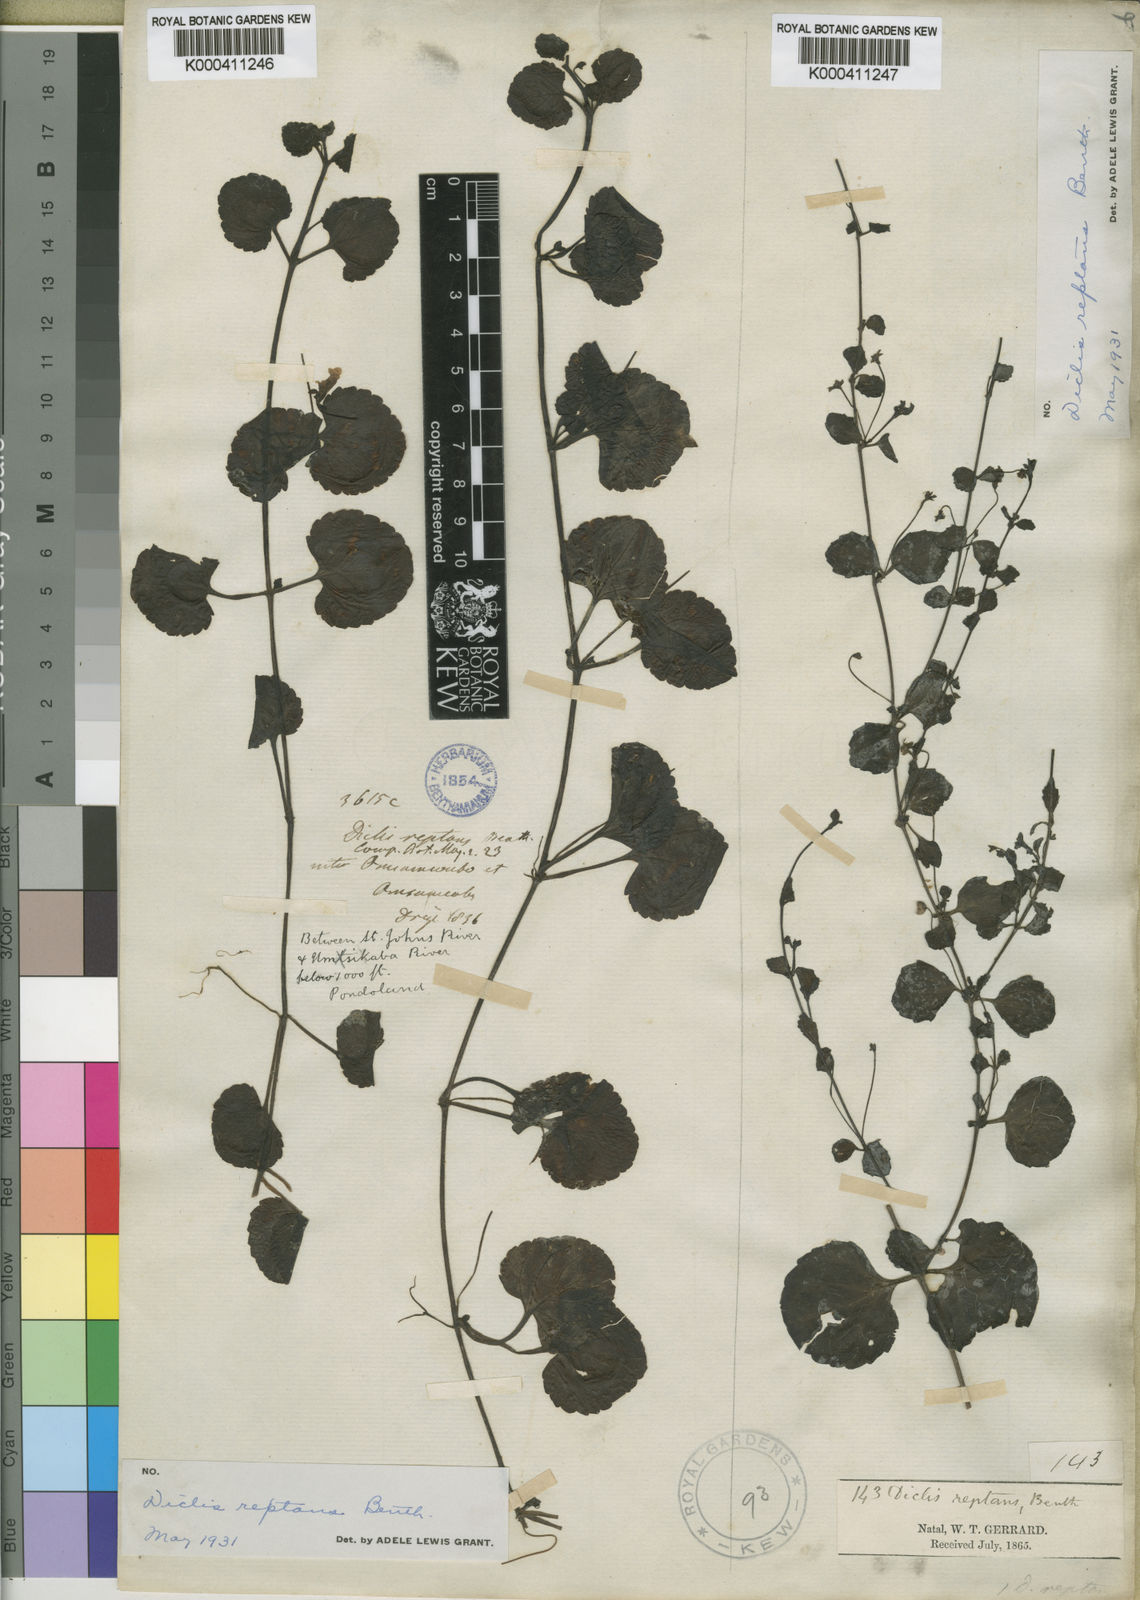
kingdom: Plantae
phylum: Tracheophyta
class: Magnoliopsida
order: Lamiales
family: Scrophulariaceae
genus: Diclis
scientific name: Diclis reptans
